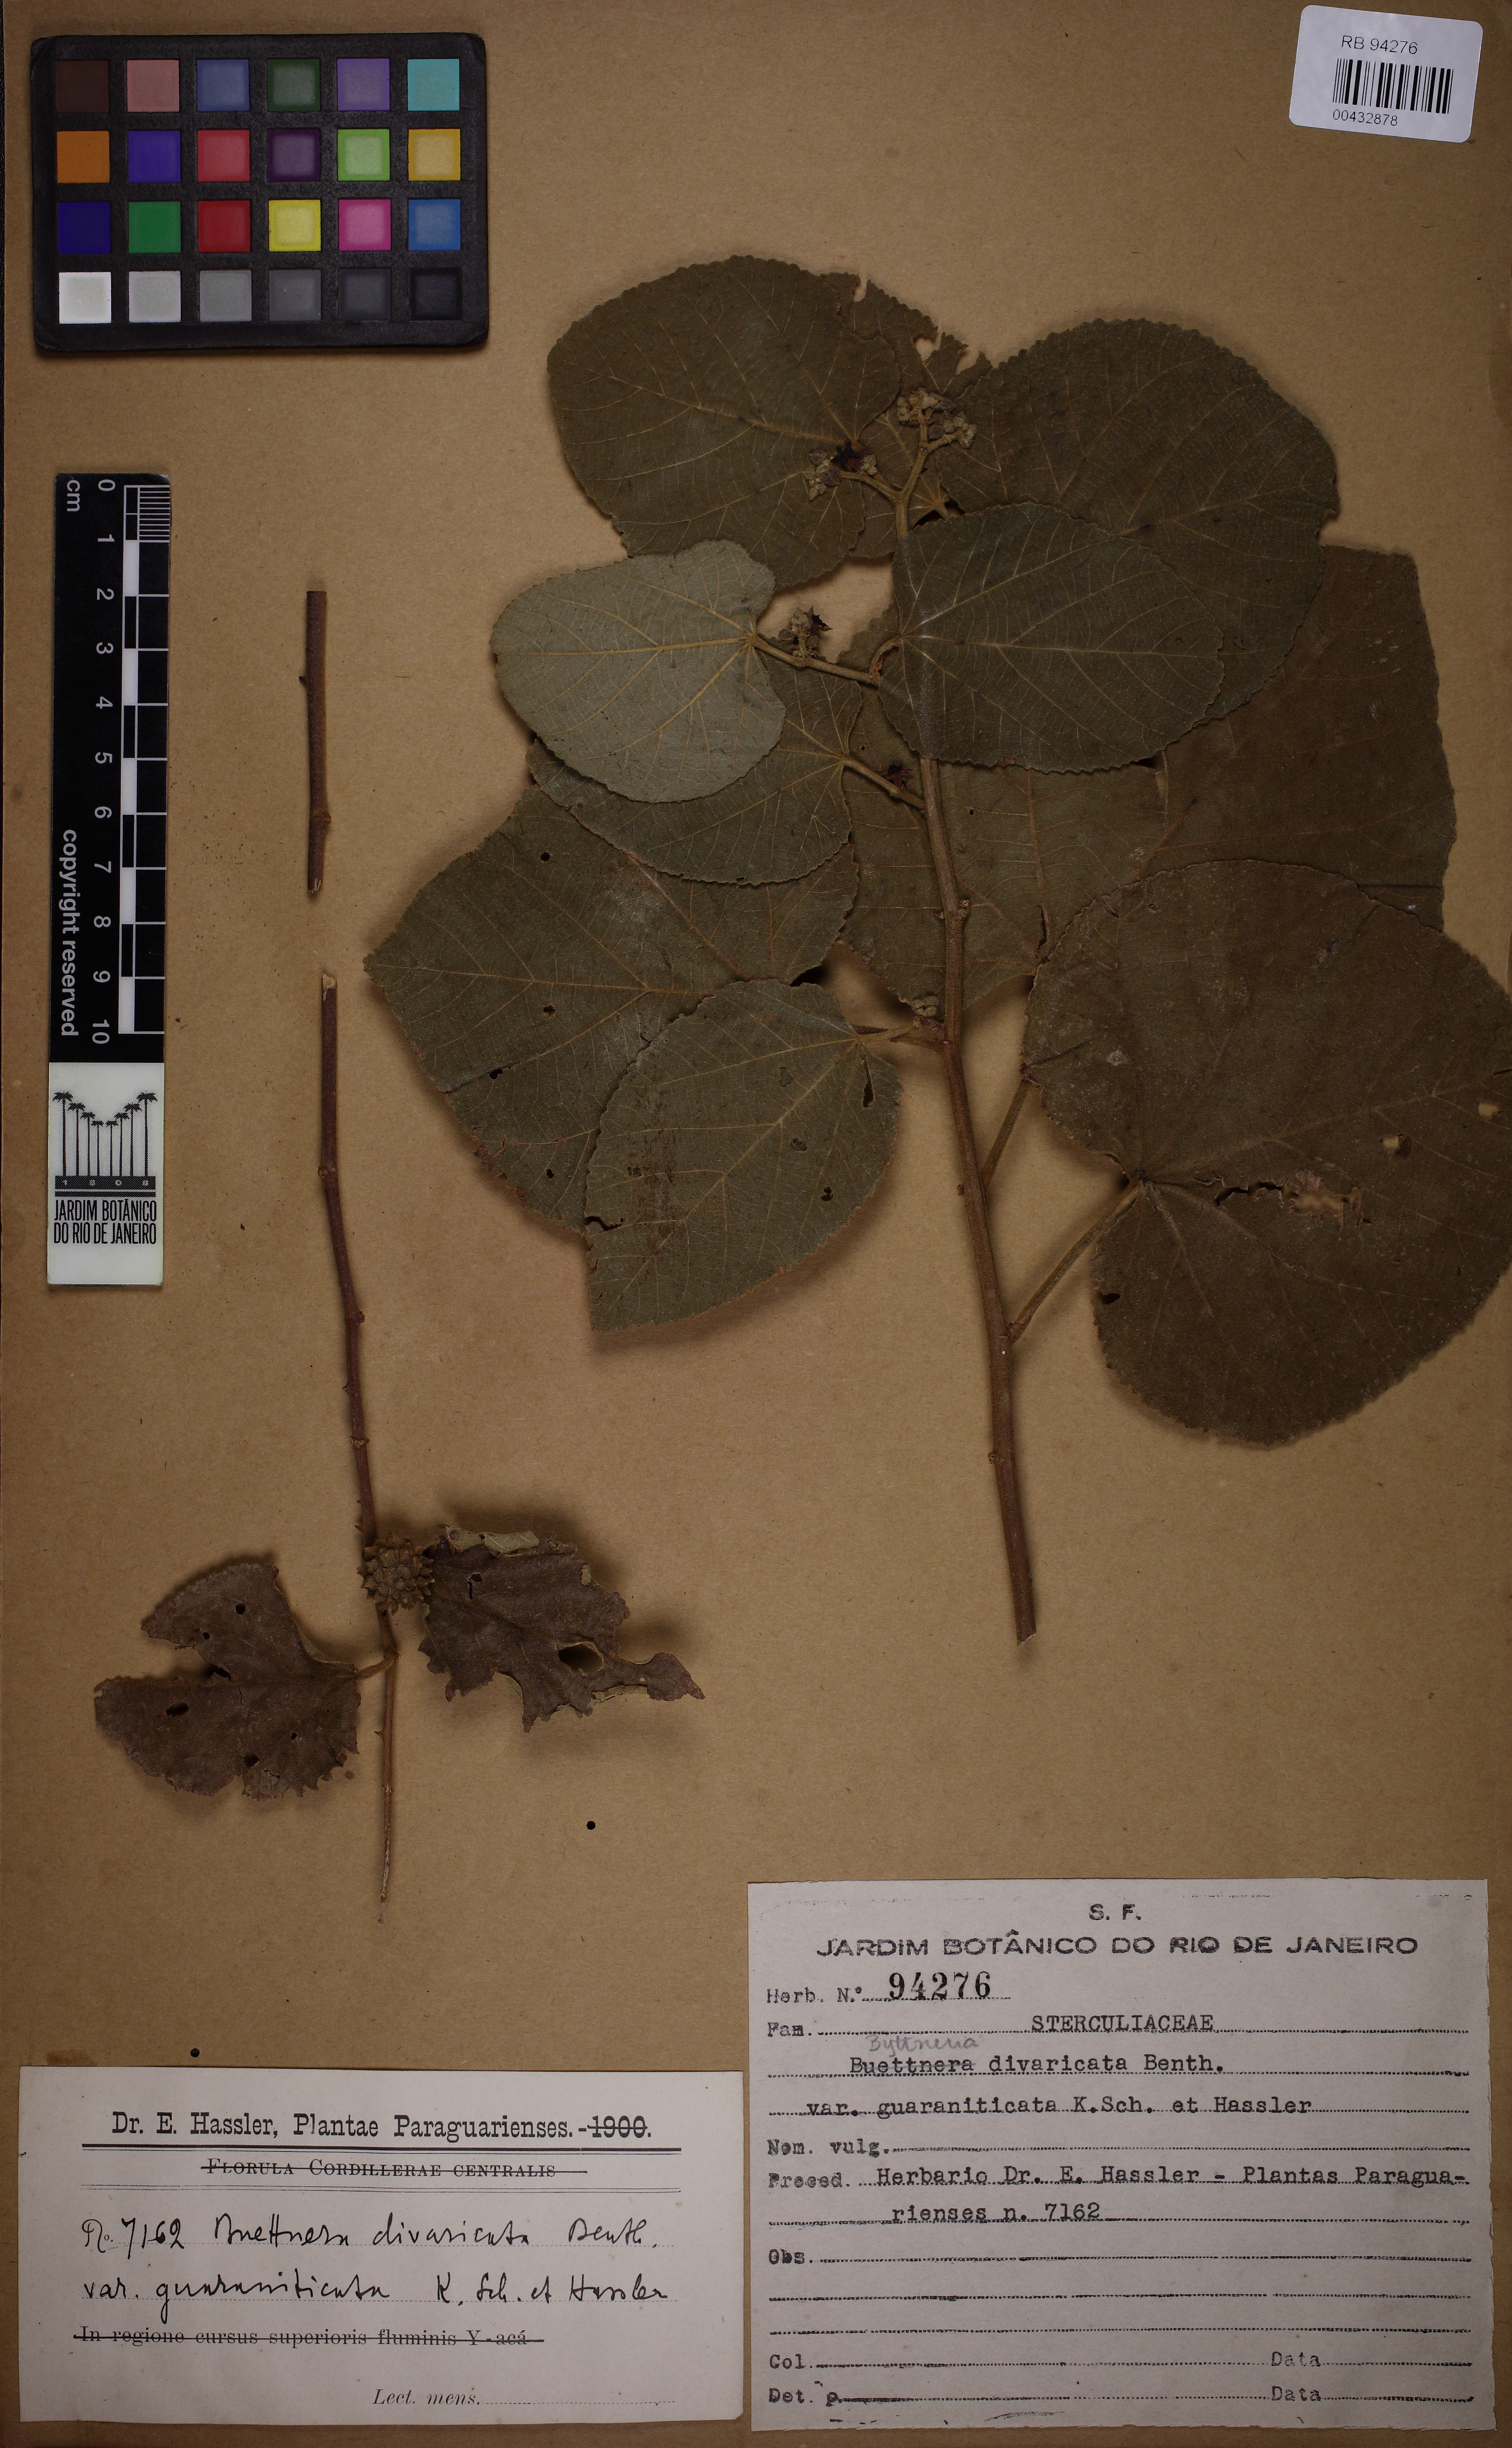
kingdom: Plantae
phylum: Tracheophyta
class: Magnoliopsida
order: Malvales
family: Malvaceae
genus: Byttneria
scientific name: Byttneria divaricata
